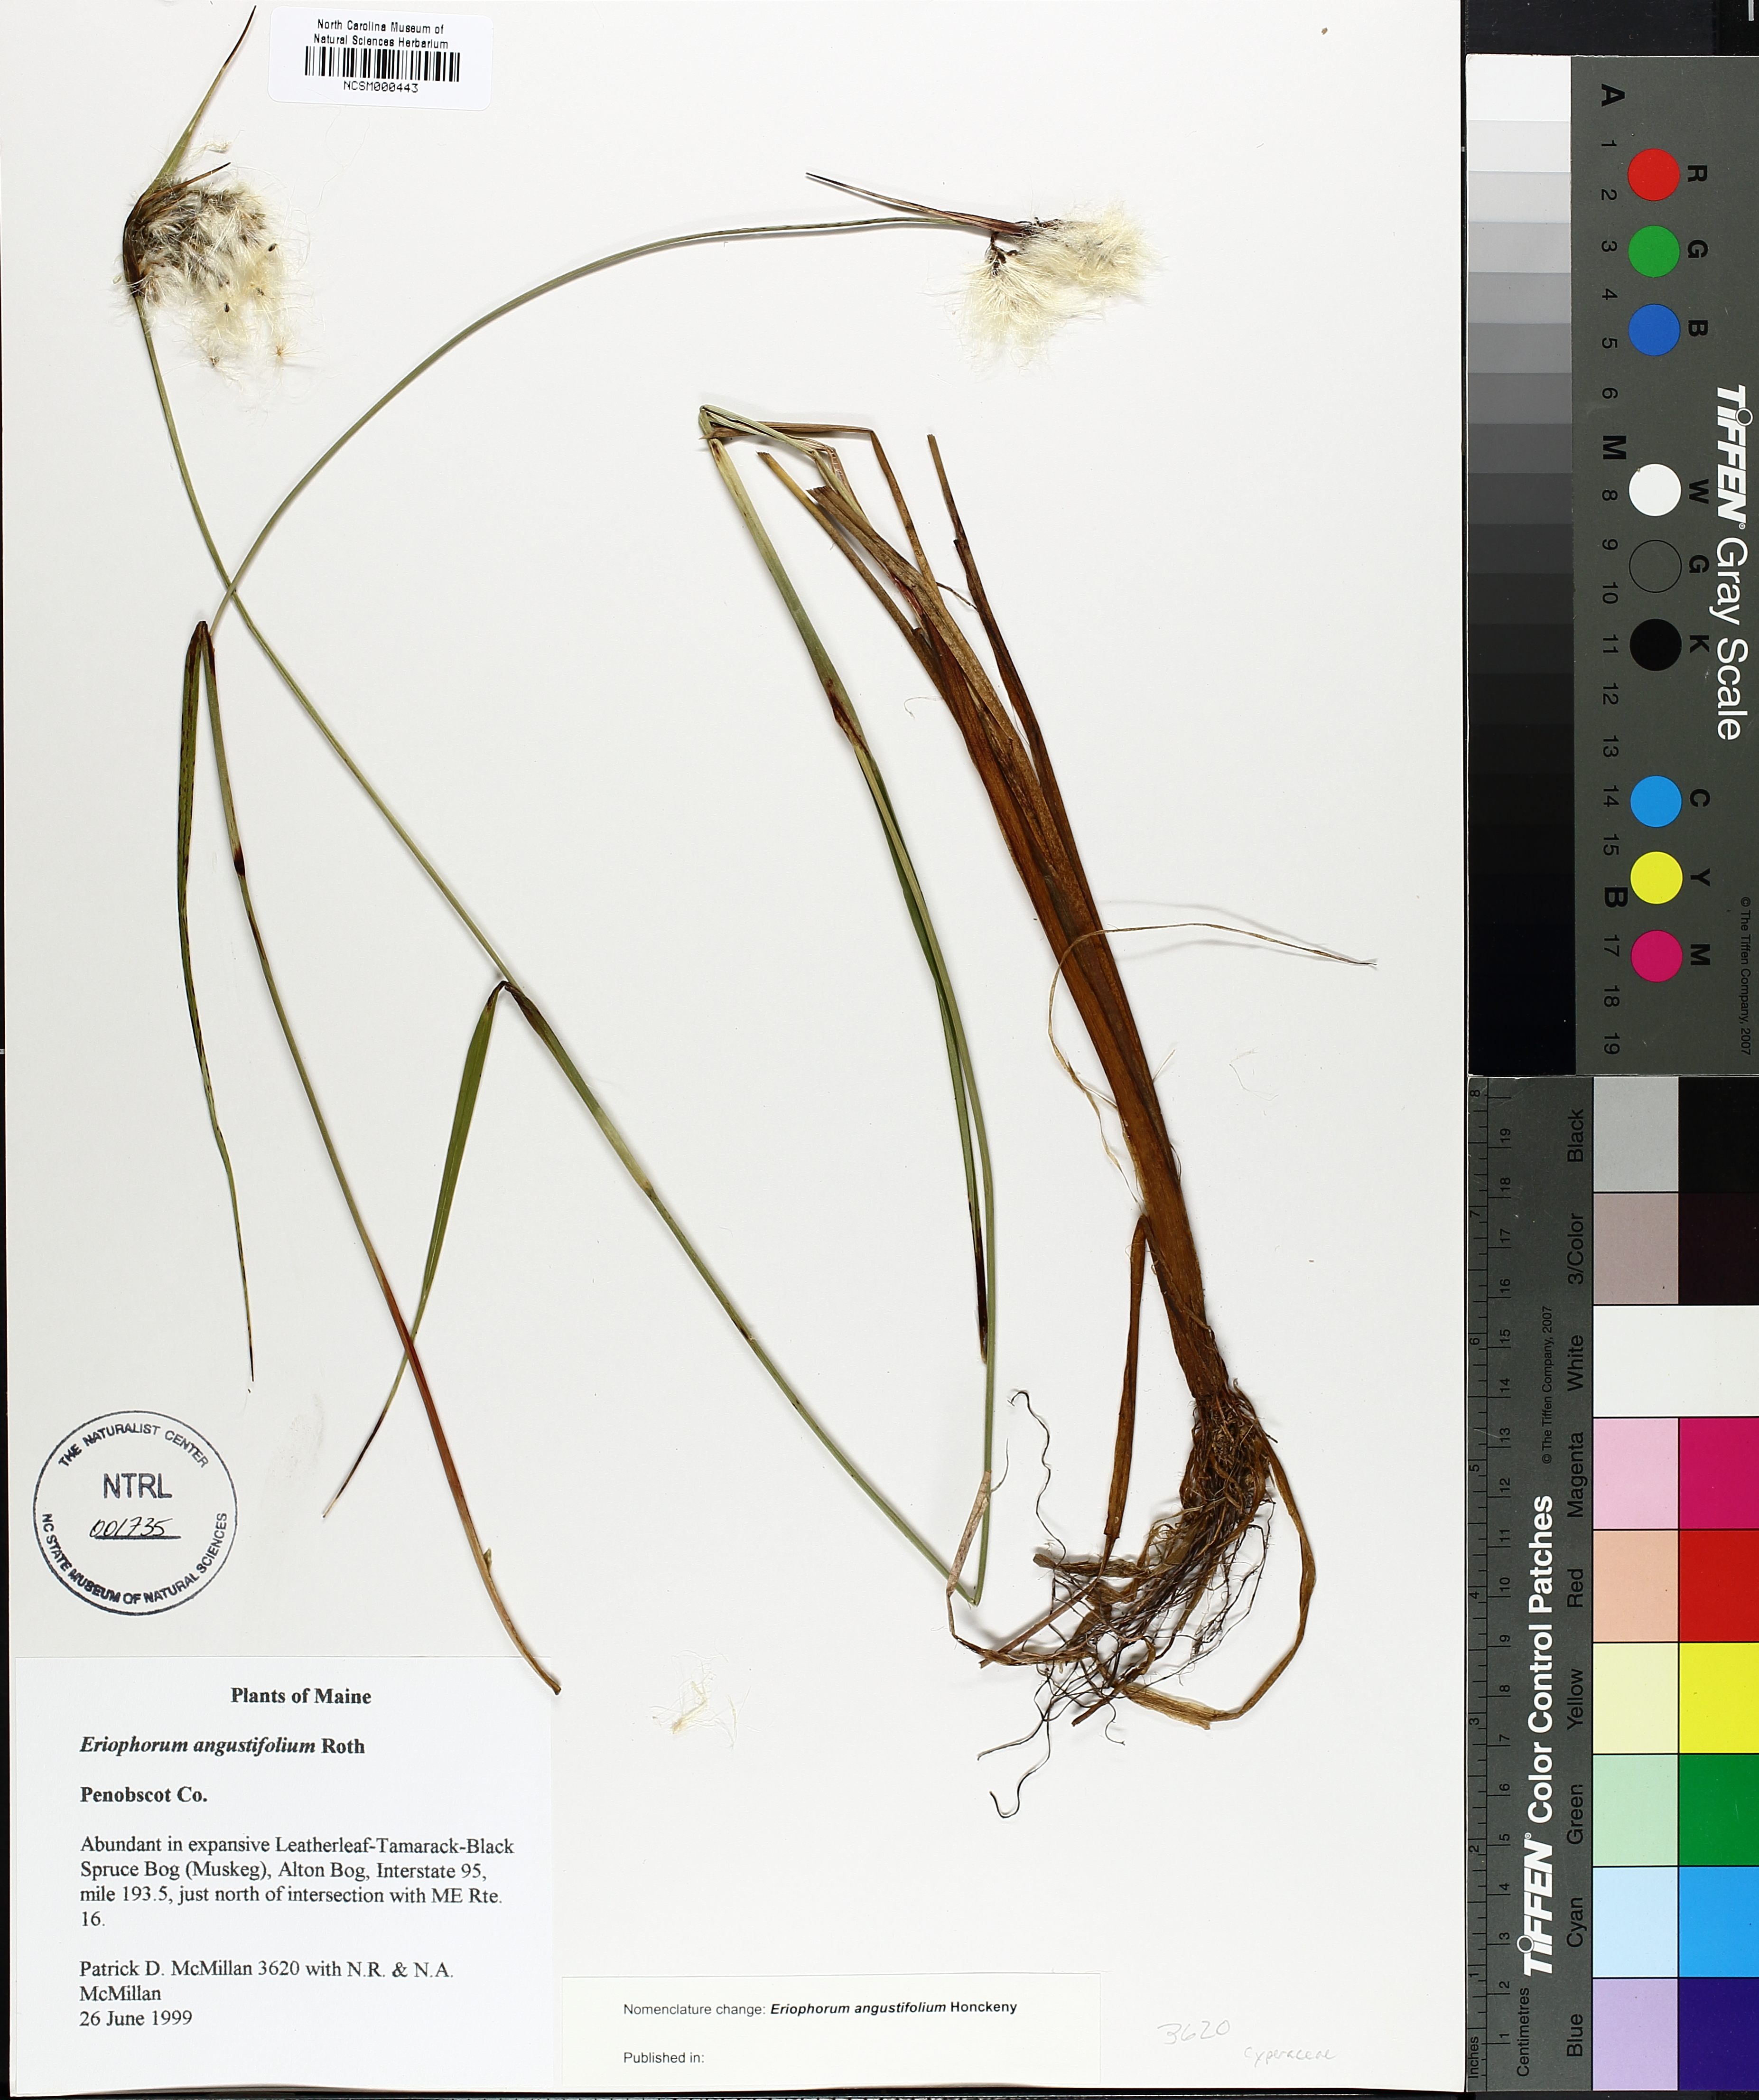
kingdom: Plantae
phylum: Tracheophyta
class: Liliopsida
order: Poales
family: Cyperaceae
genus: Eriophorum
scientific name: Eriophorum angustifolium
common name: Common cottongrass
